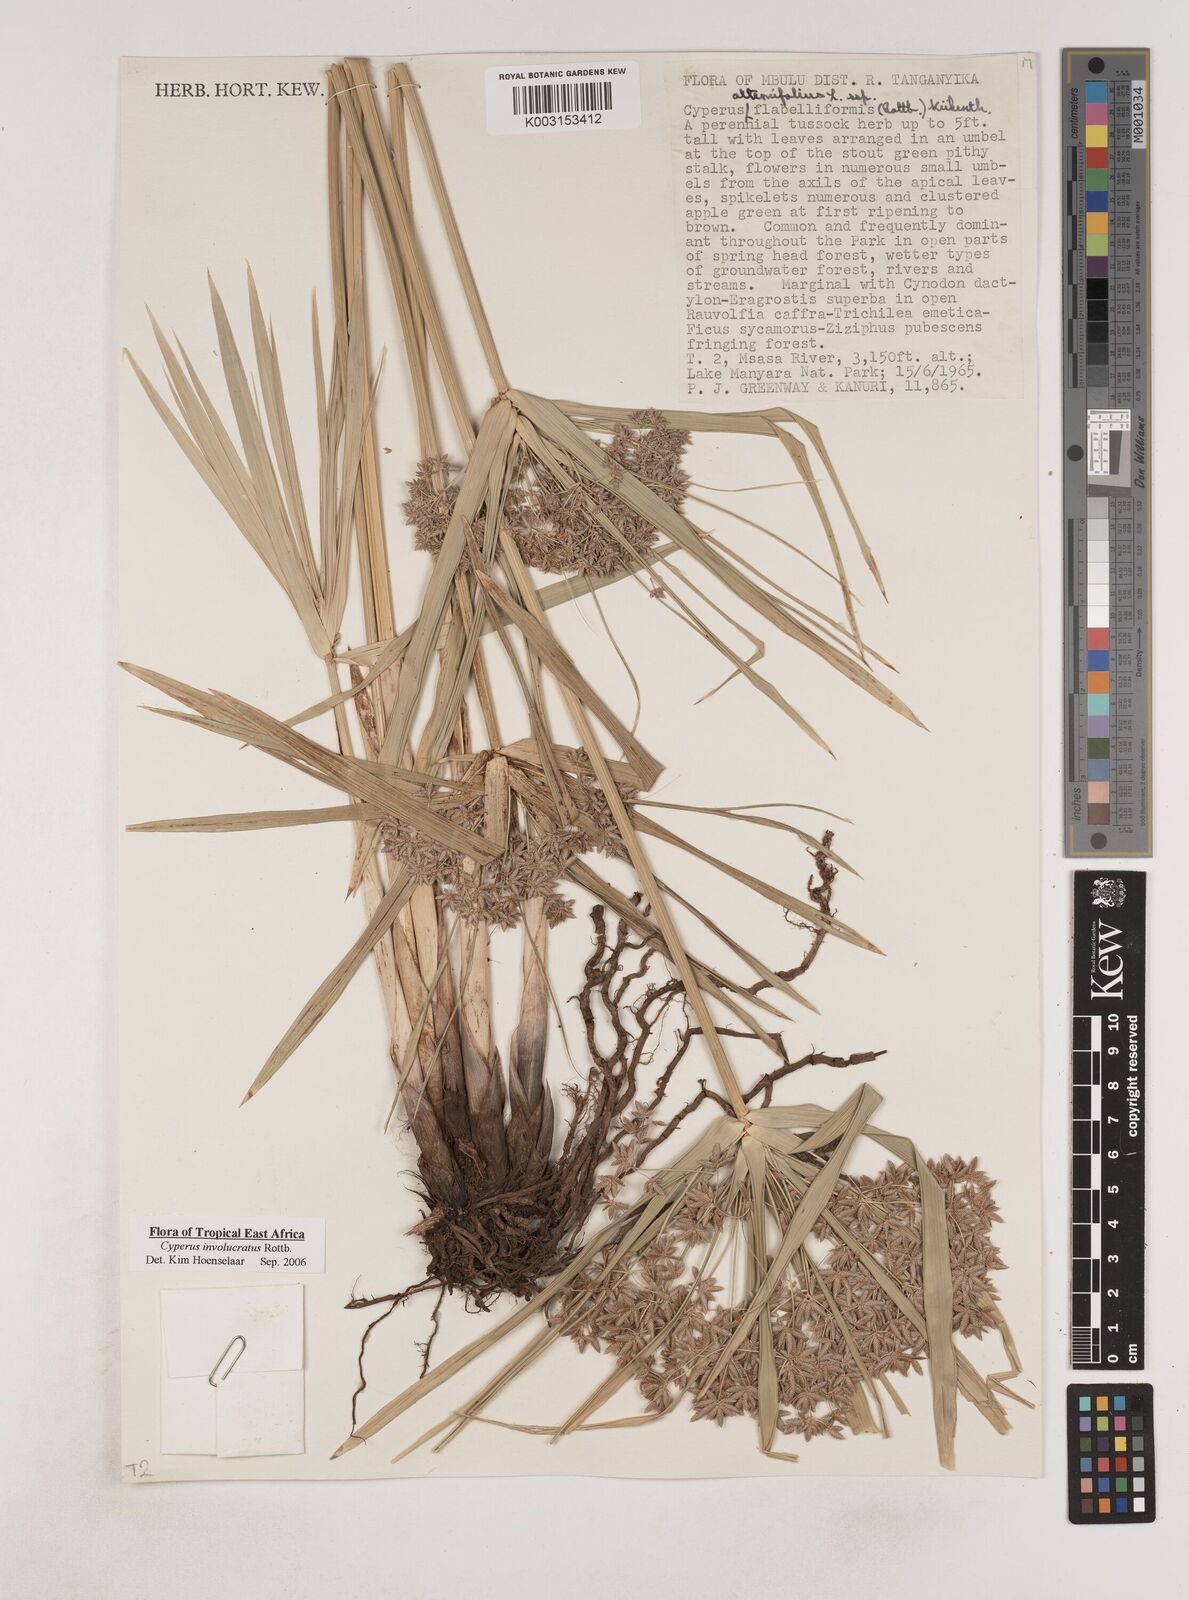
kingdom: Plantae
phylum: Tracheophyta
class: Liliopsida
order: Poales
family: Cyperaceae
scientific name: Cyperaceae
